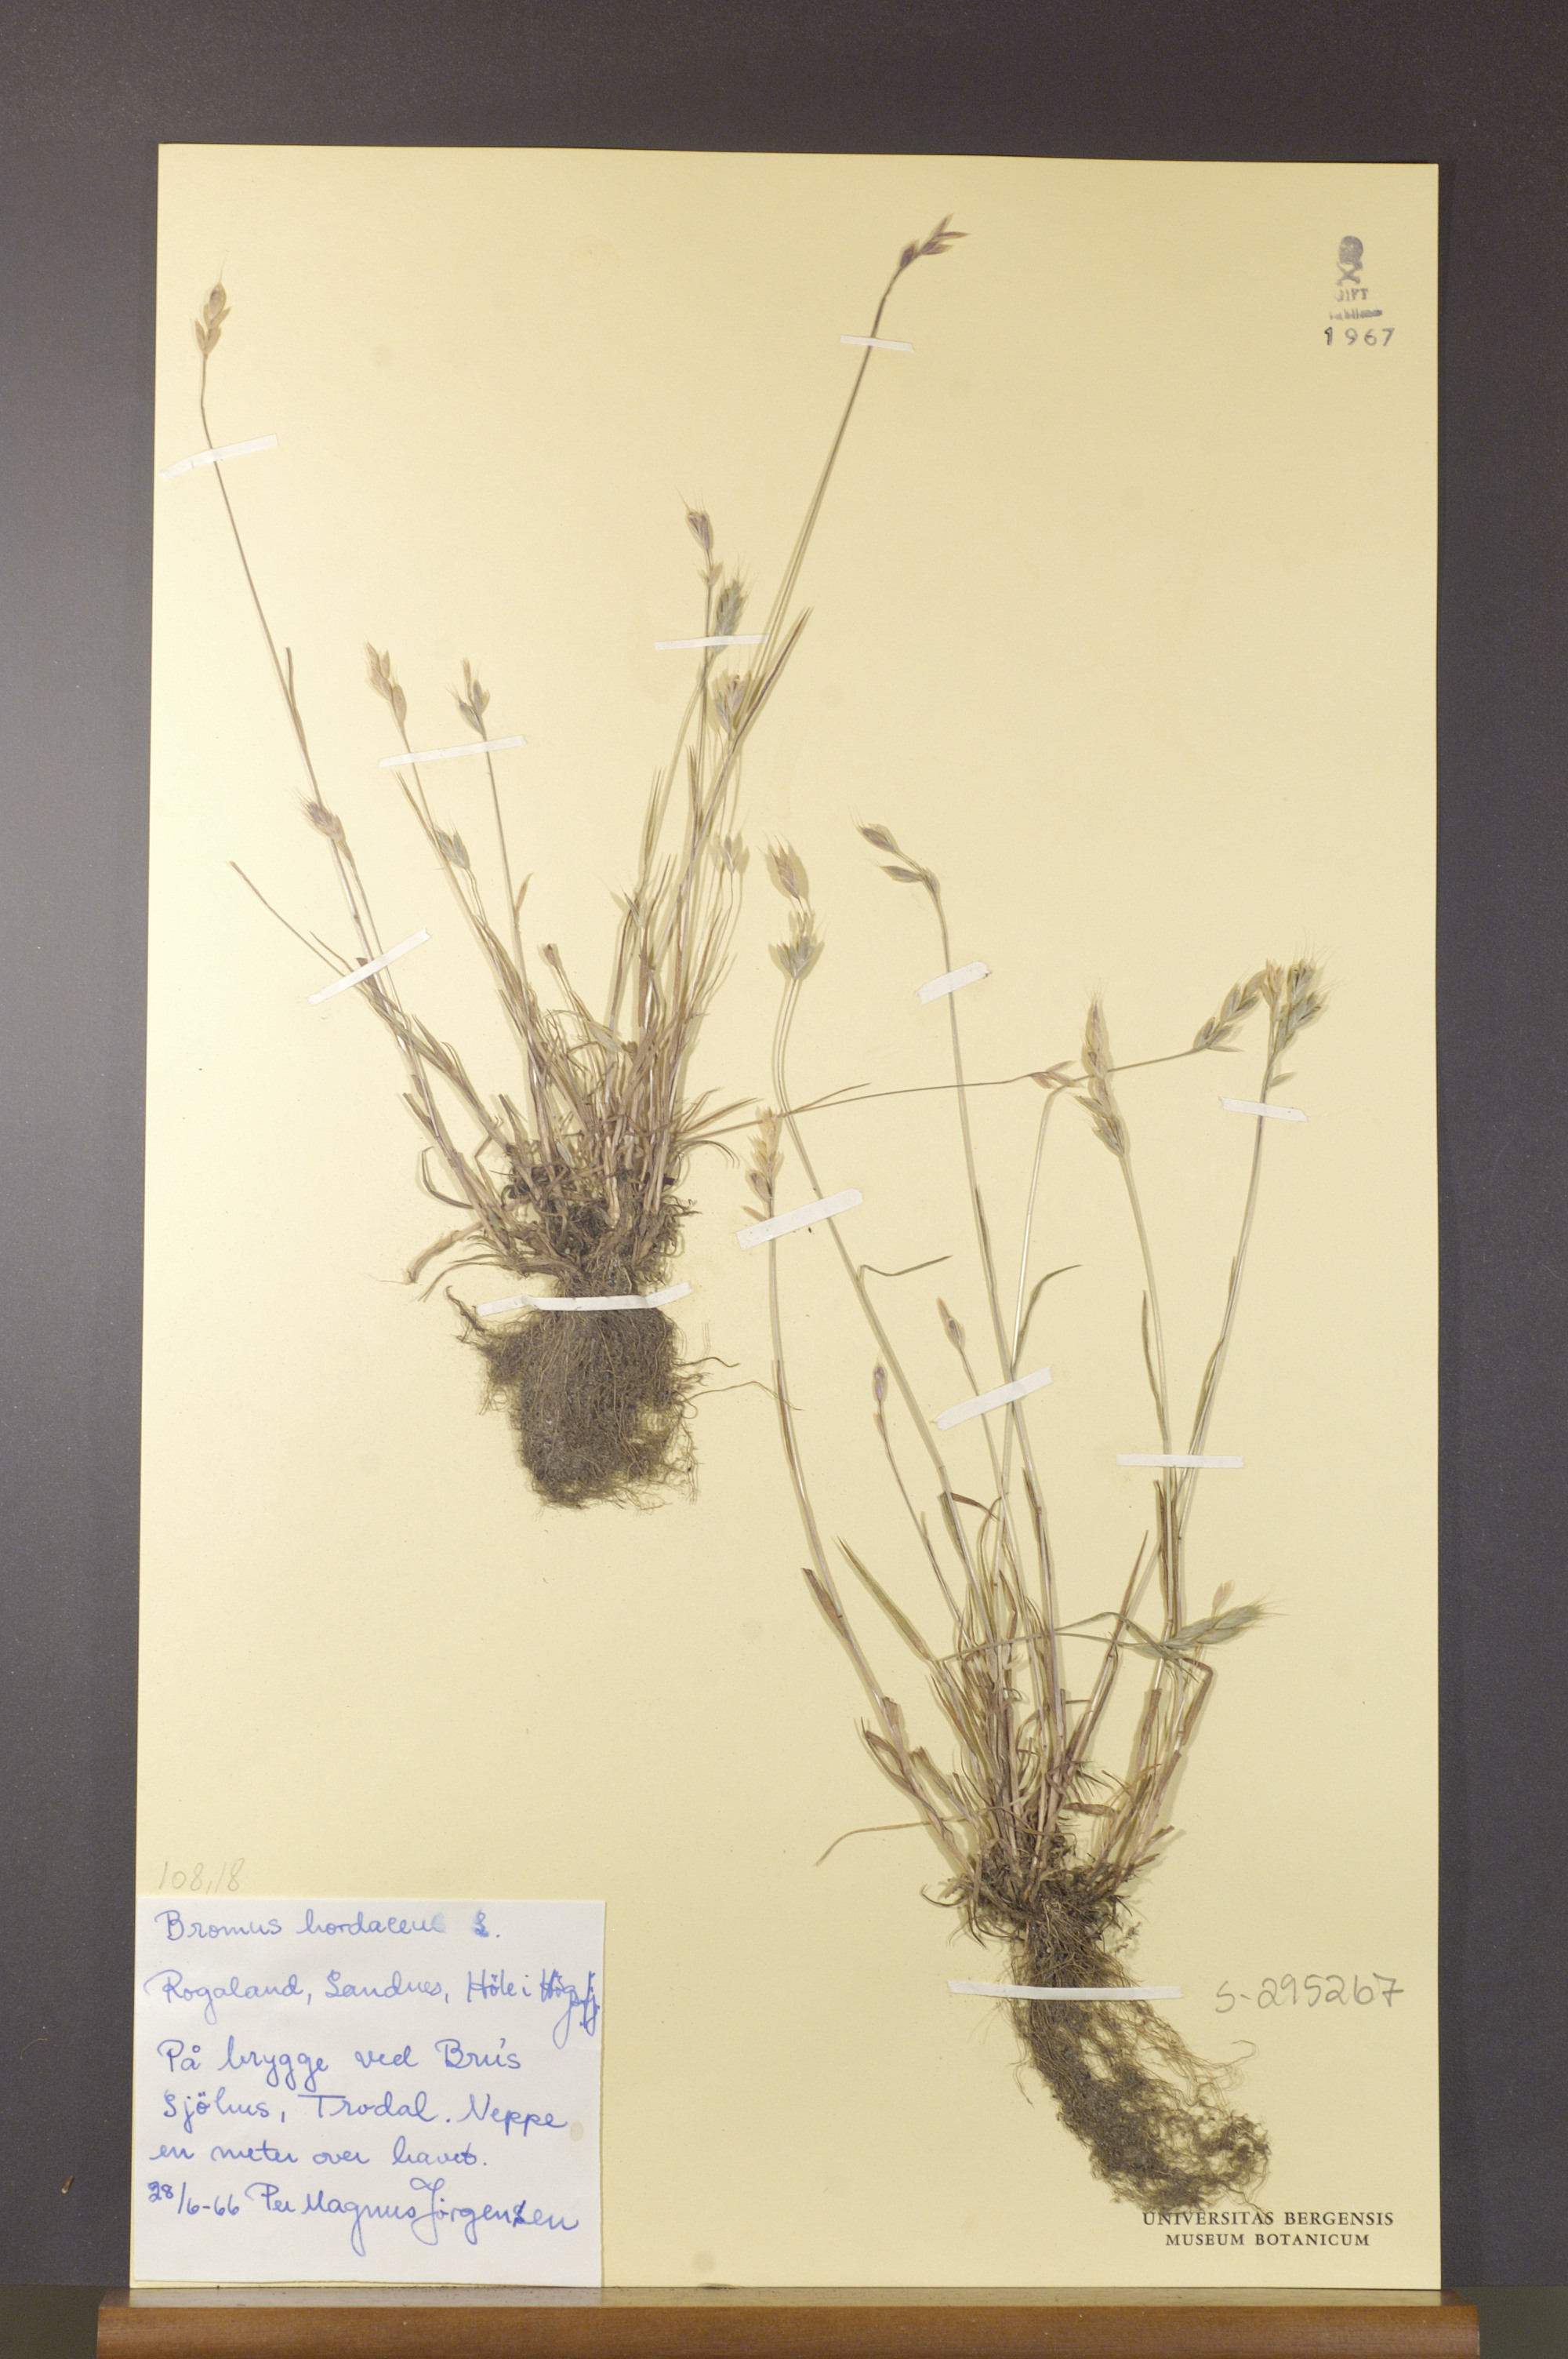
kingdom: Plantae
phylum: Tracheophyta
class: Liliopsida
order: Poales
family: Poaceae
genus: Bromus
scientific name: Bromus hordeaceus
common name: Soft brome
